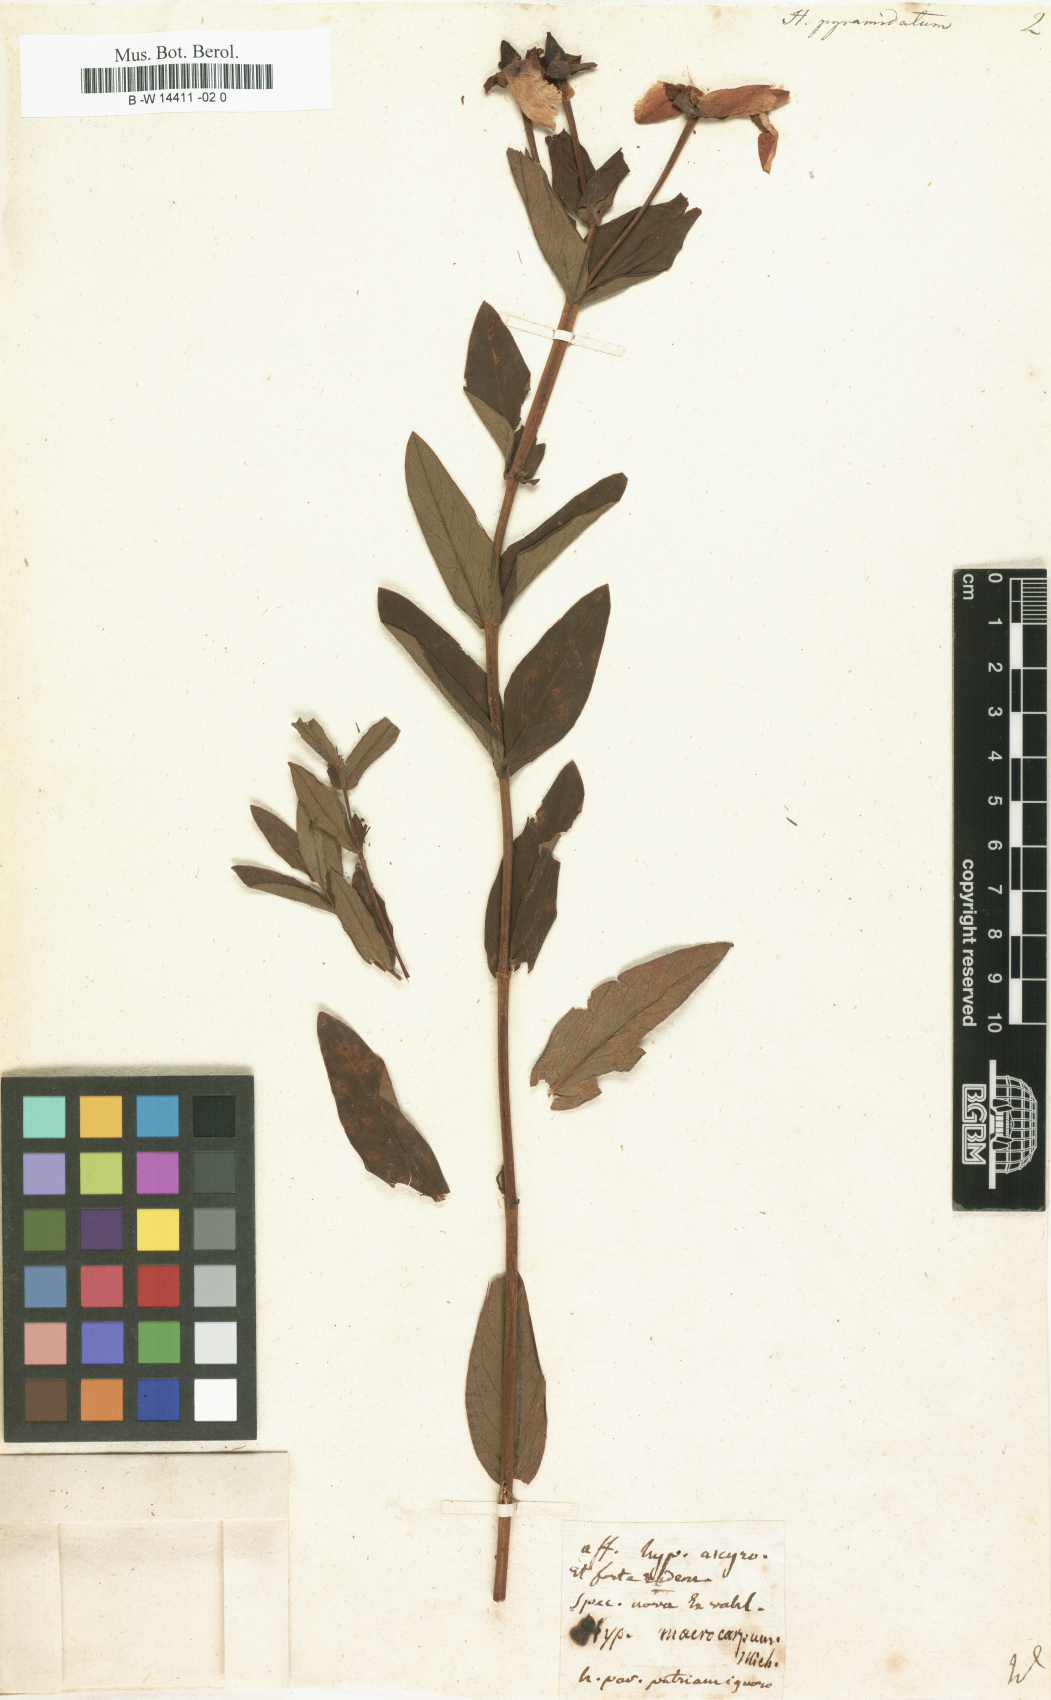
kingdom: Plantae
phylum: Tracheophyta
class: Magnoliopsida
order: Malpighiales
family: Hypericaceae
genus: Hypericum
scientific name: Hypericum ascyron
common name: Giant st. john's-wort
